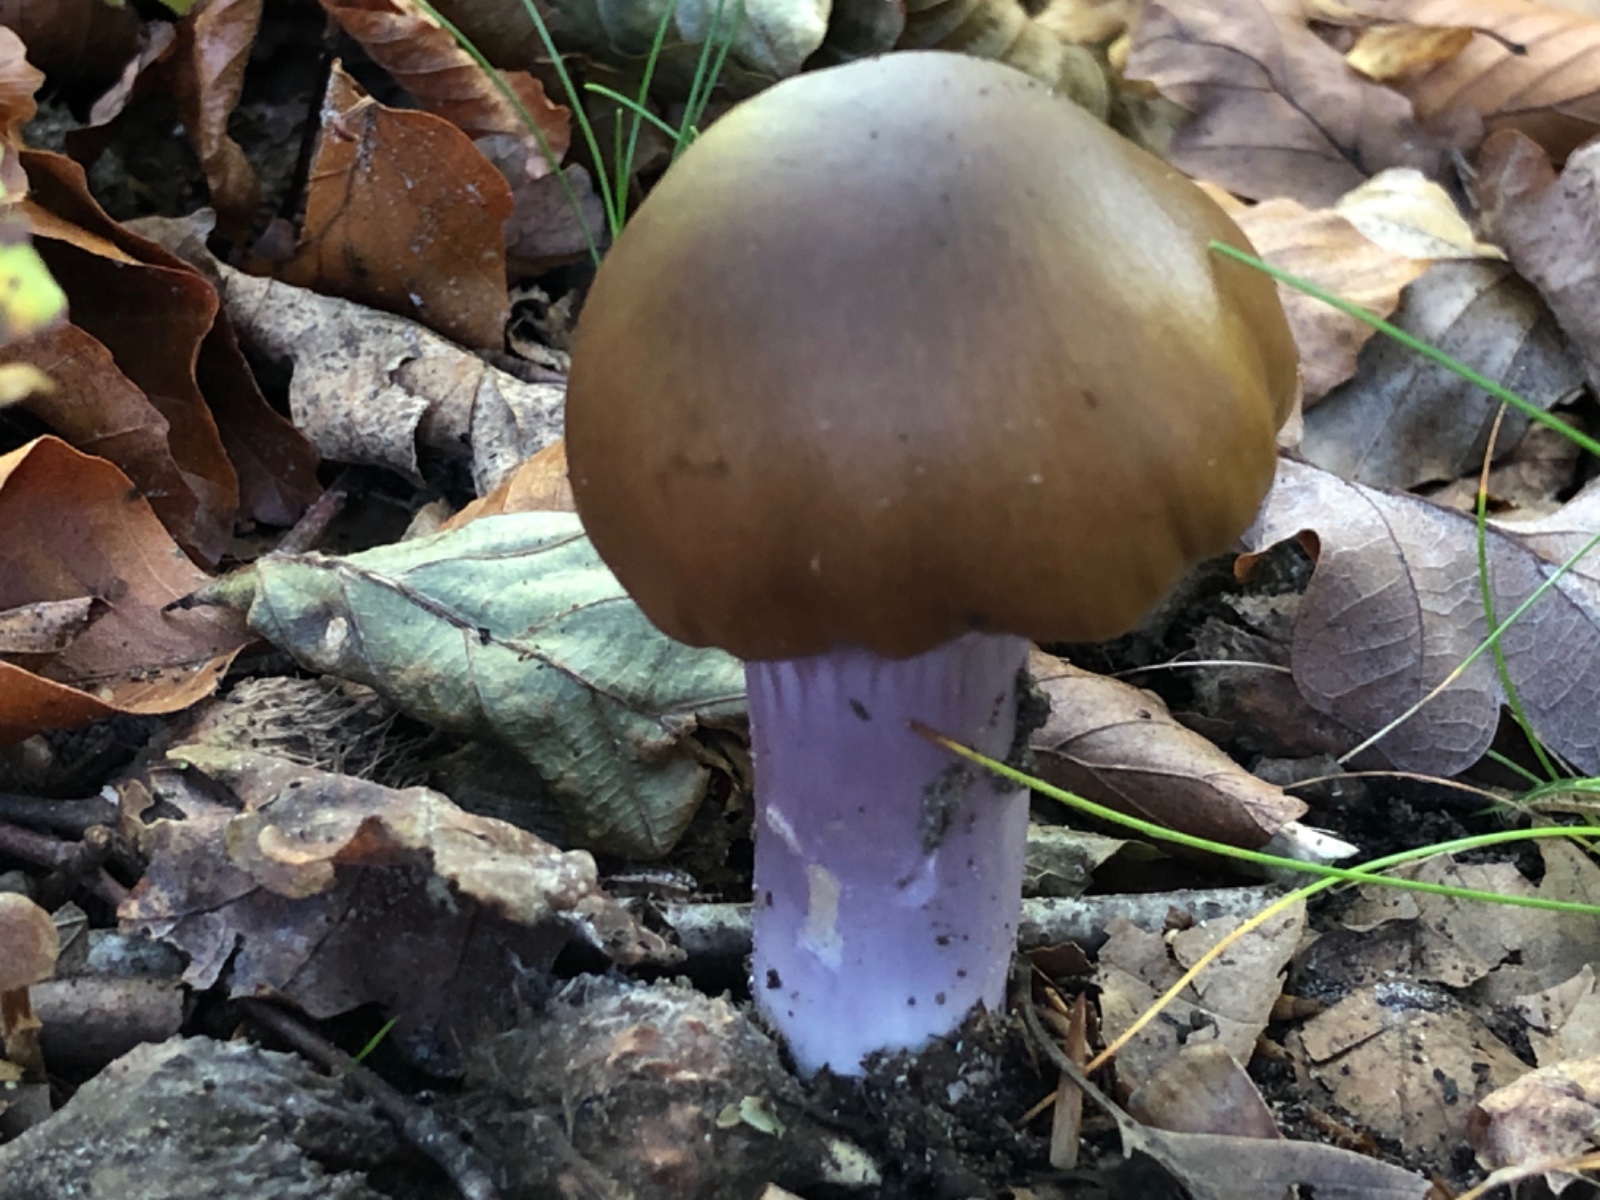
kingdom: Fungi
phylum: Basidiomycota
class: Agaricomycetes
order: Agaricales
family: Cortinariaceae
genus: Cortinarius
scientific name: Cortinarius elatior
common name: høj slørhat
